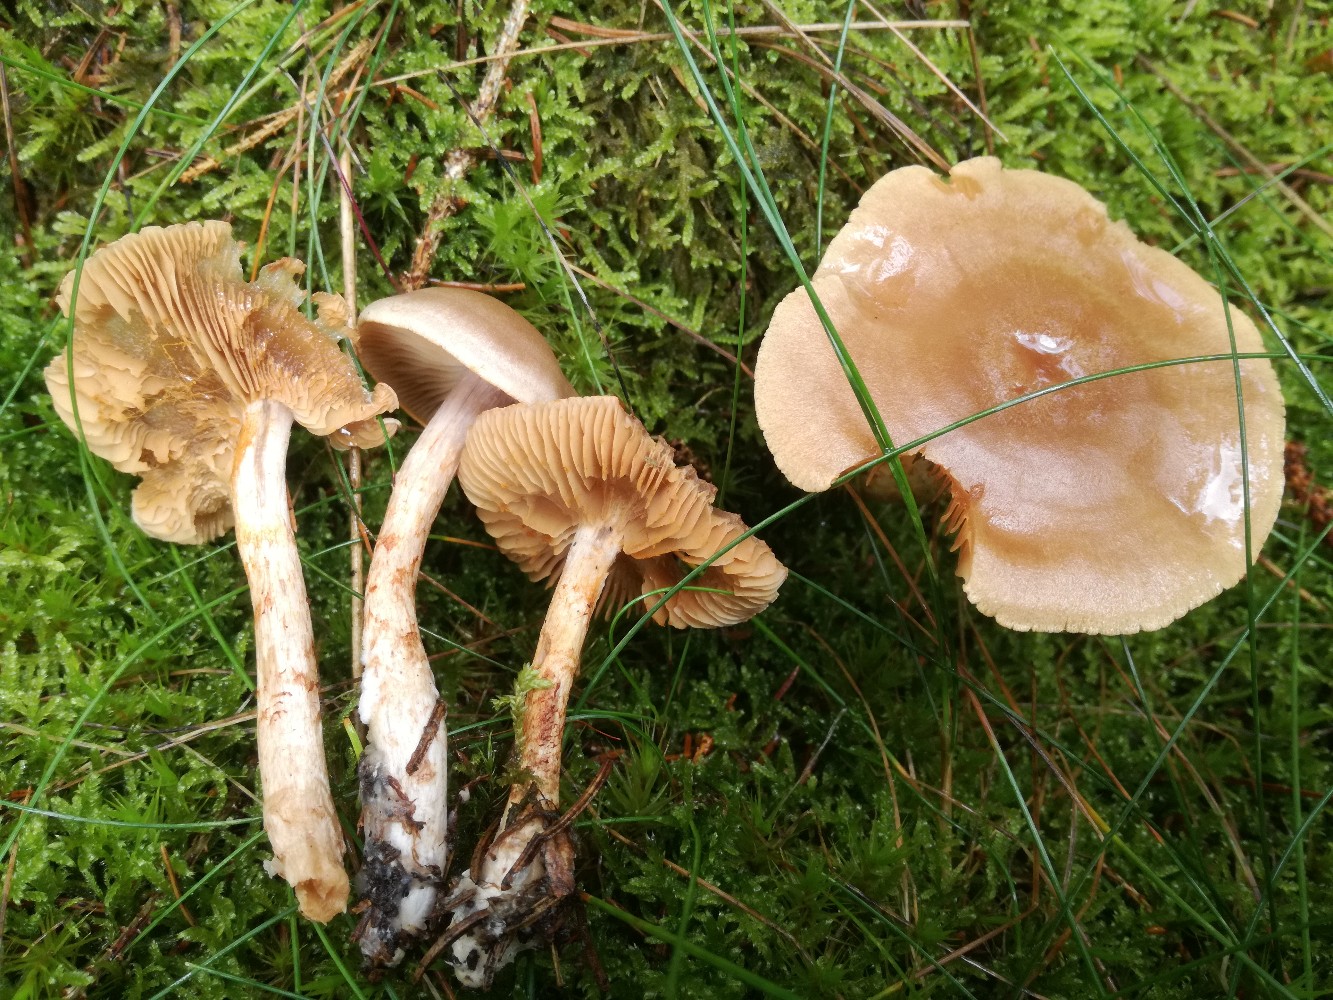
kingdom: Fungi
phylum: Basidiomycota
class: Agaricomycetes
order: Agaricales
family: Cortinariaceae
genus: Cortinarius
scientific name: Cortinarius spilomeus
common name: rødfnugget slørhat
